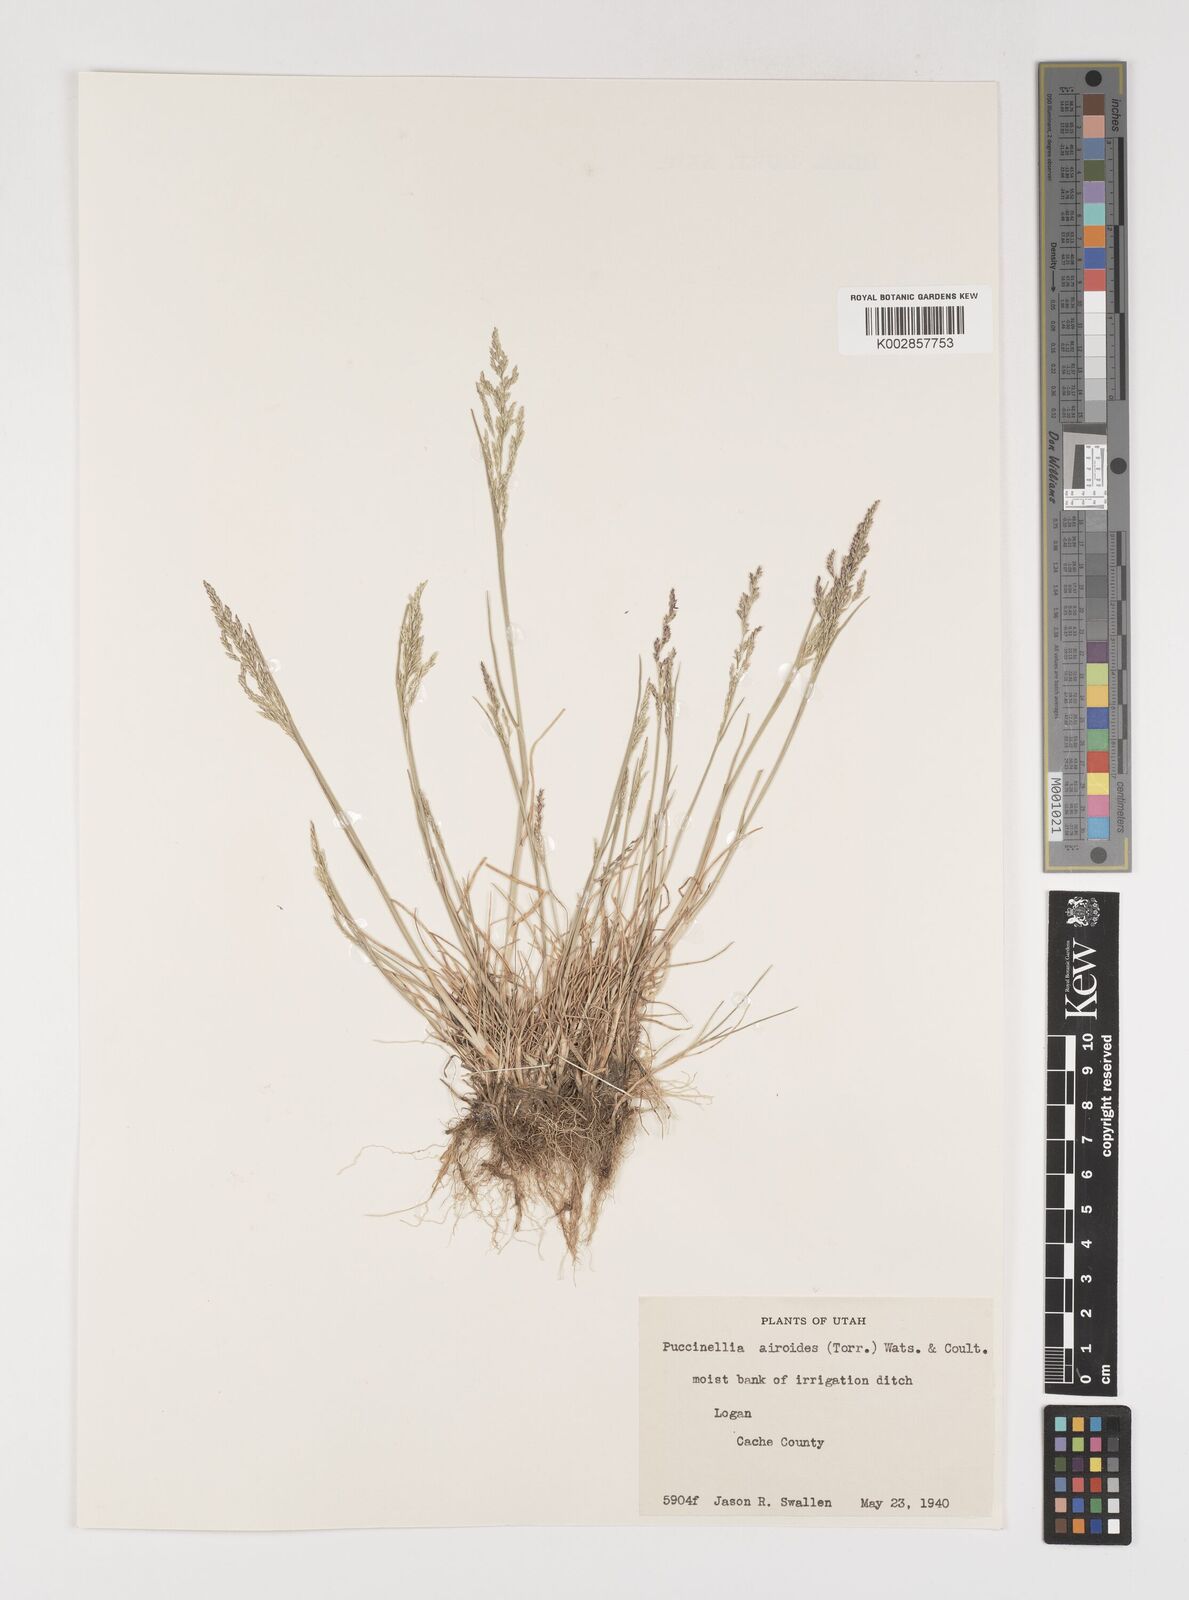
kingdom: Plantae
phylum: Tracheophyta
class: Liliopsida
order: Poales
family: Poaceae
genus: Puccinellia
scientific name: Puccinellia nuttalliana
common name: Nuttall's alkali grass
